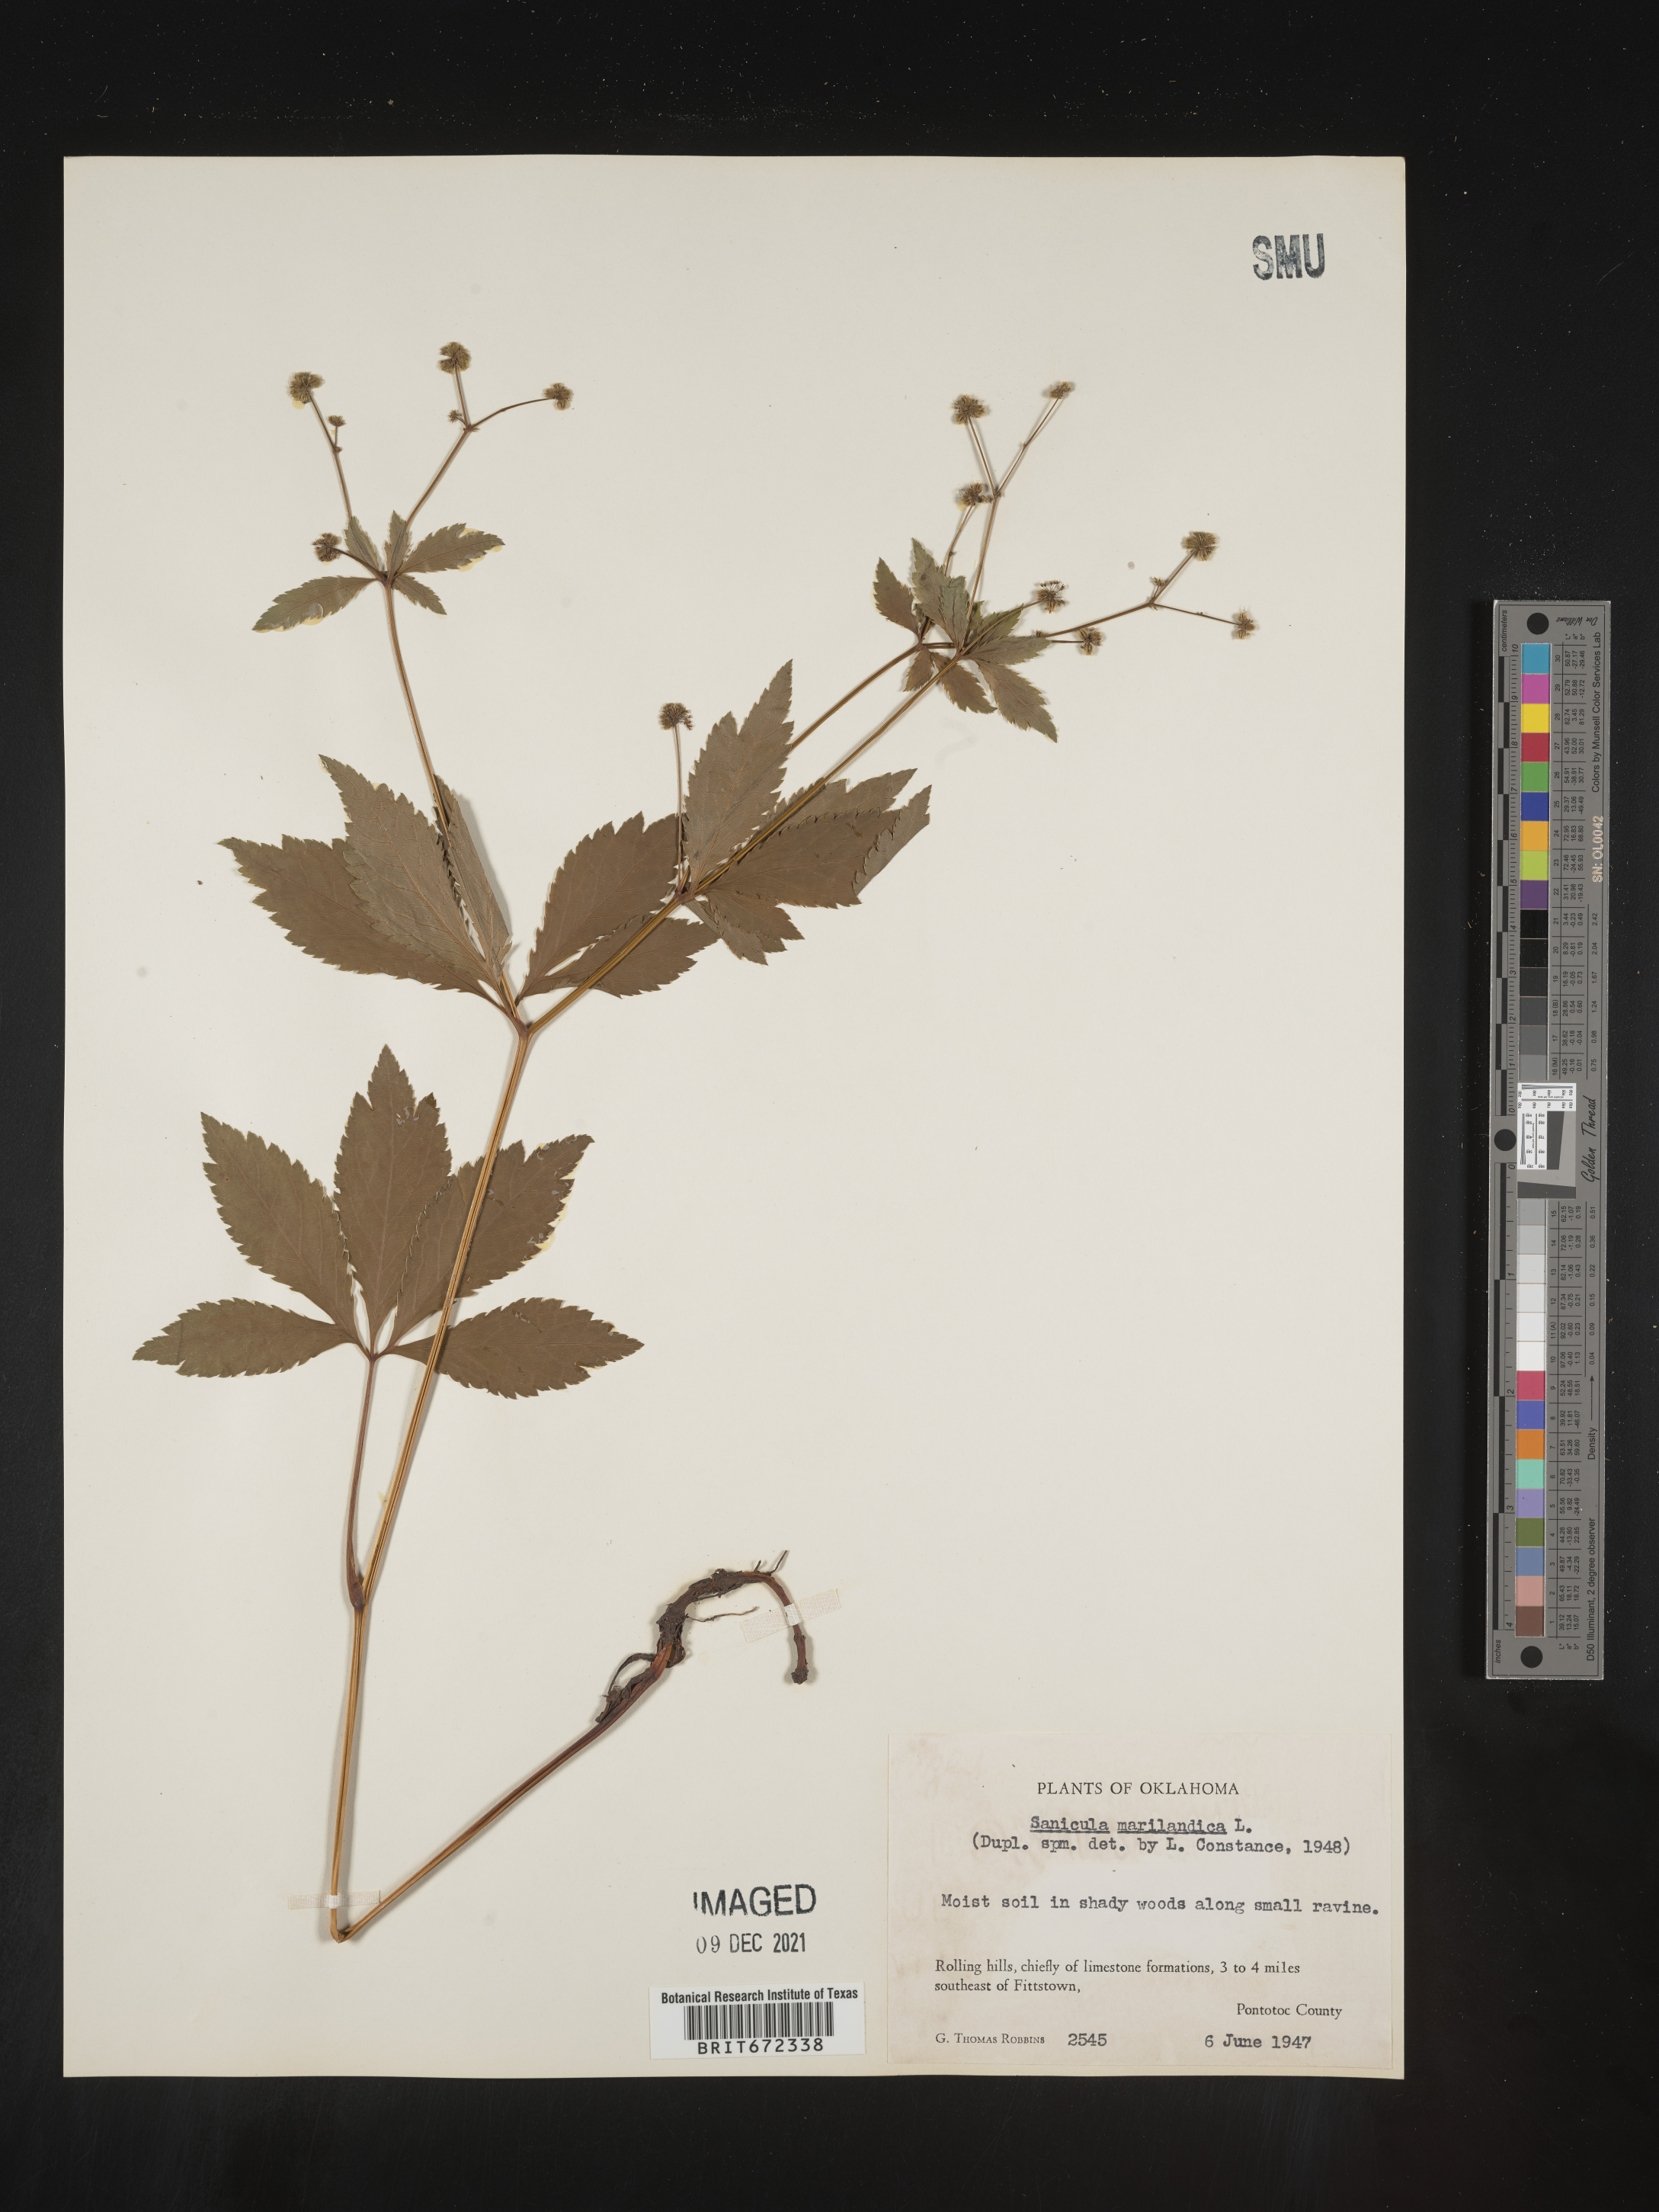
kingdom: Plantae
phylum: Tracheophyta
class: Magnoliopsida
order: Apiales
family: Apiaceae
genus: Sanicula
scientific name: Sanicula marilandica
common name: Black snakeroot
